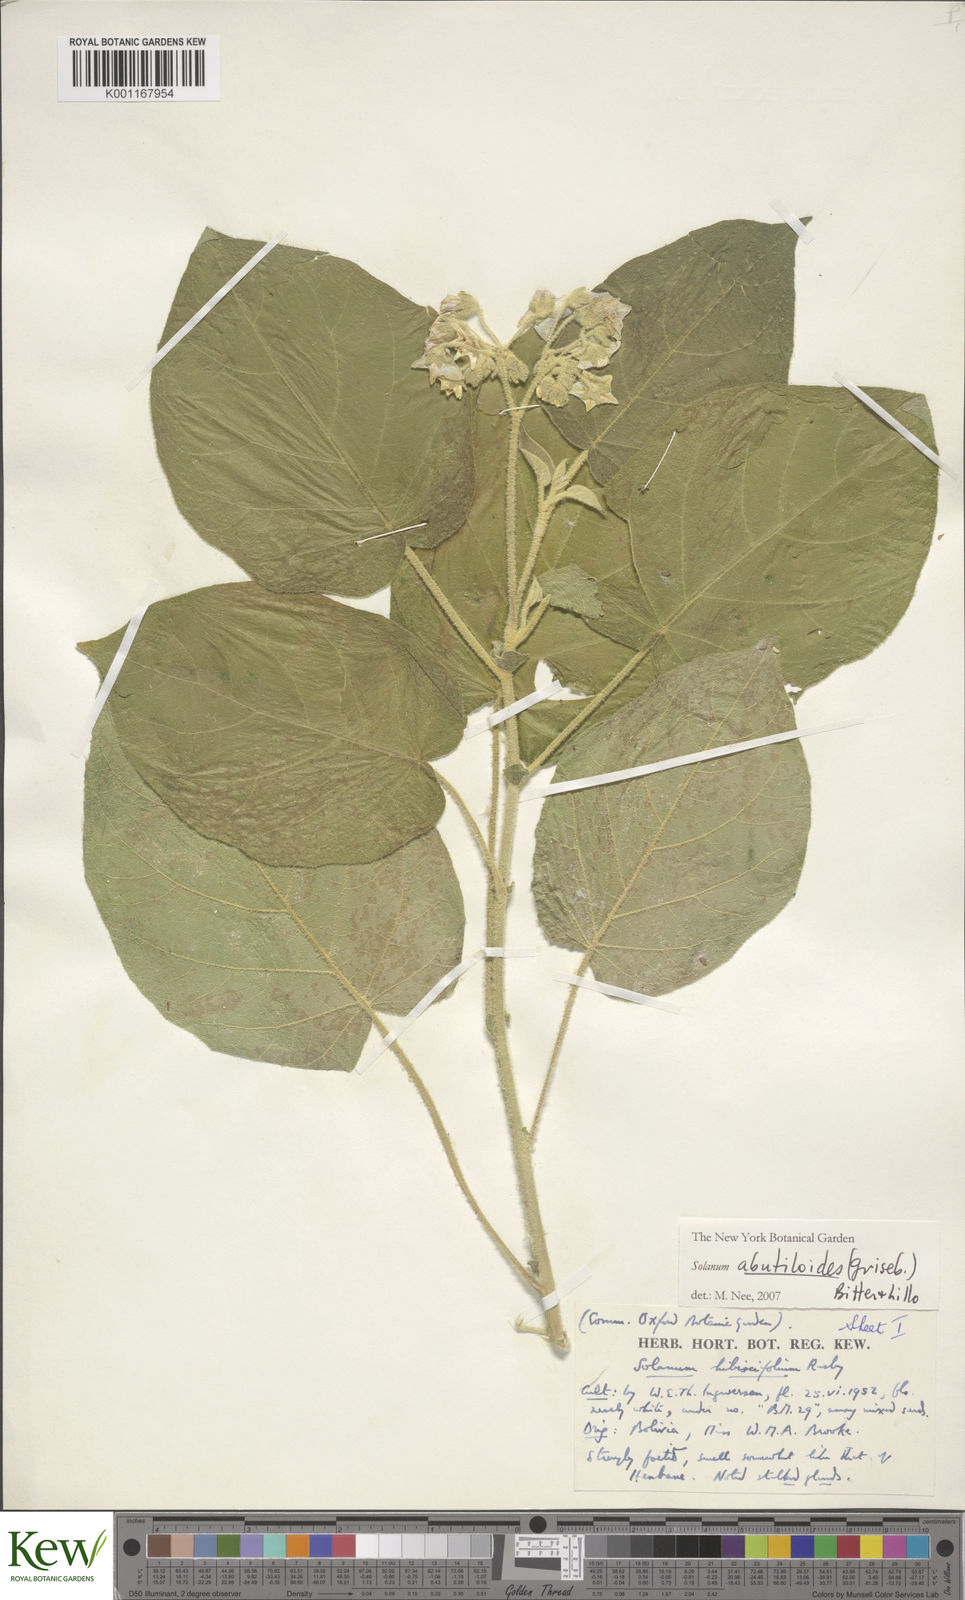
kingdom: Plantae
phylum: Tracheophyta
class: Magnoliopsida
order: Solanales
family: Solanaceae
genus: Solanum
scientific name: Solanum abutiloides
